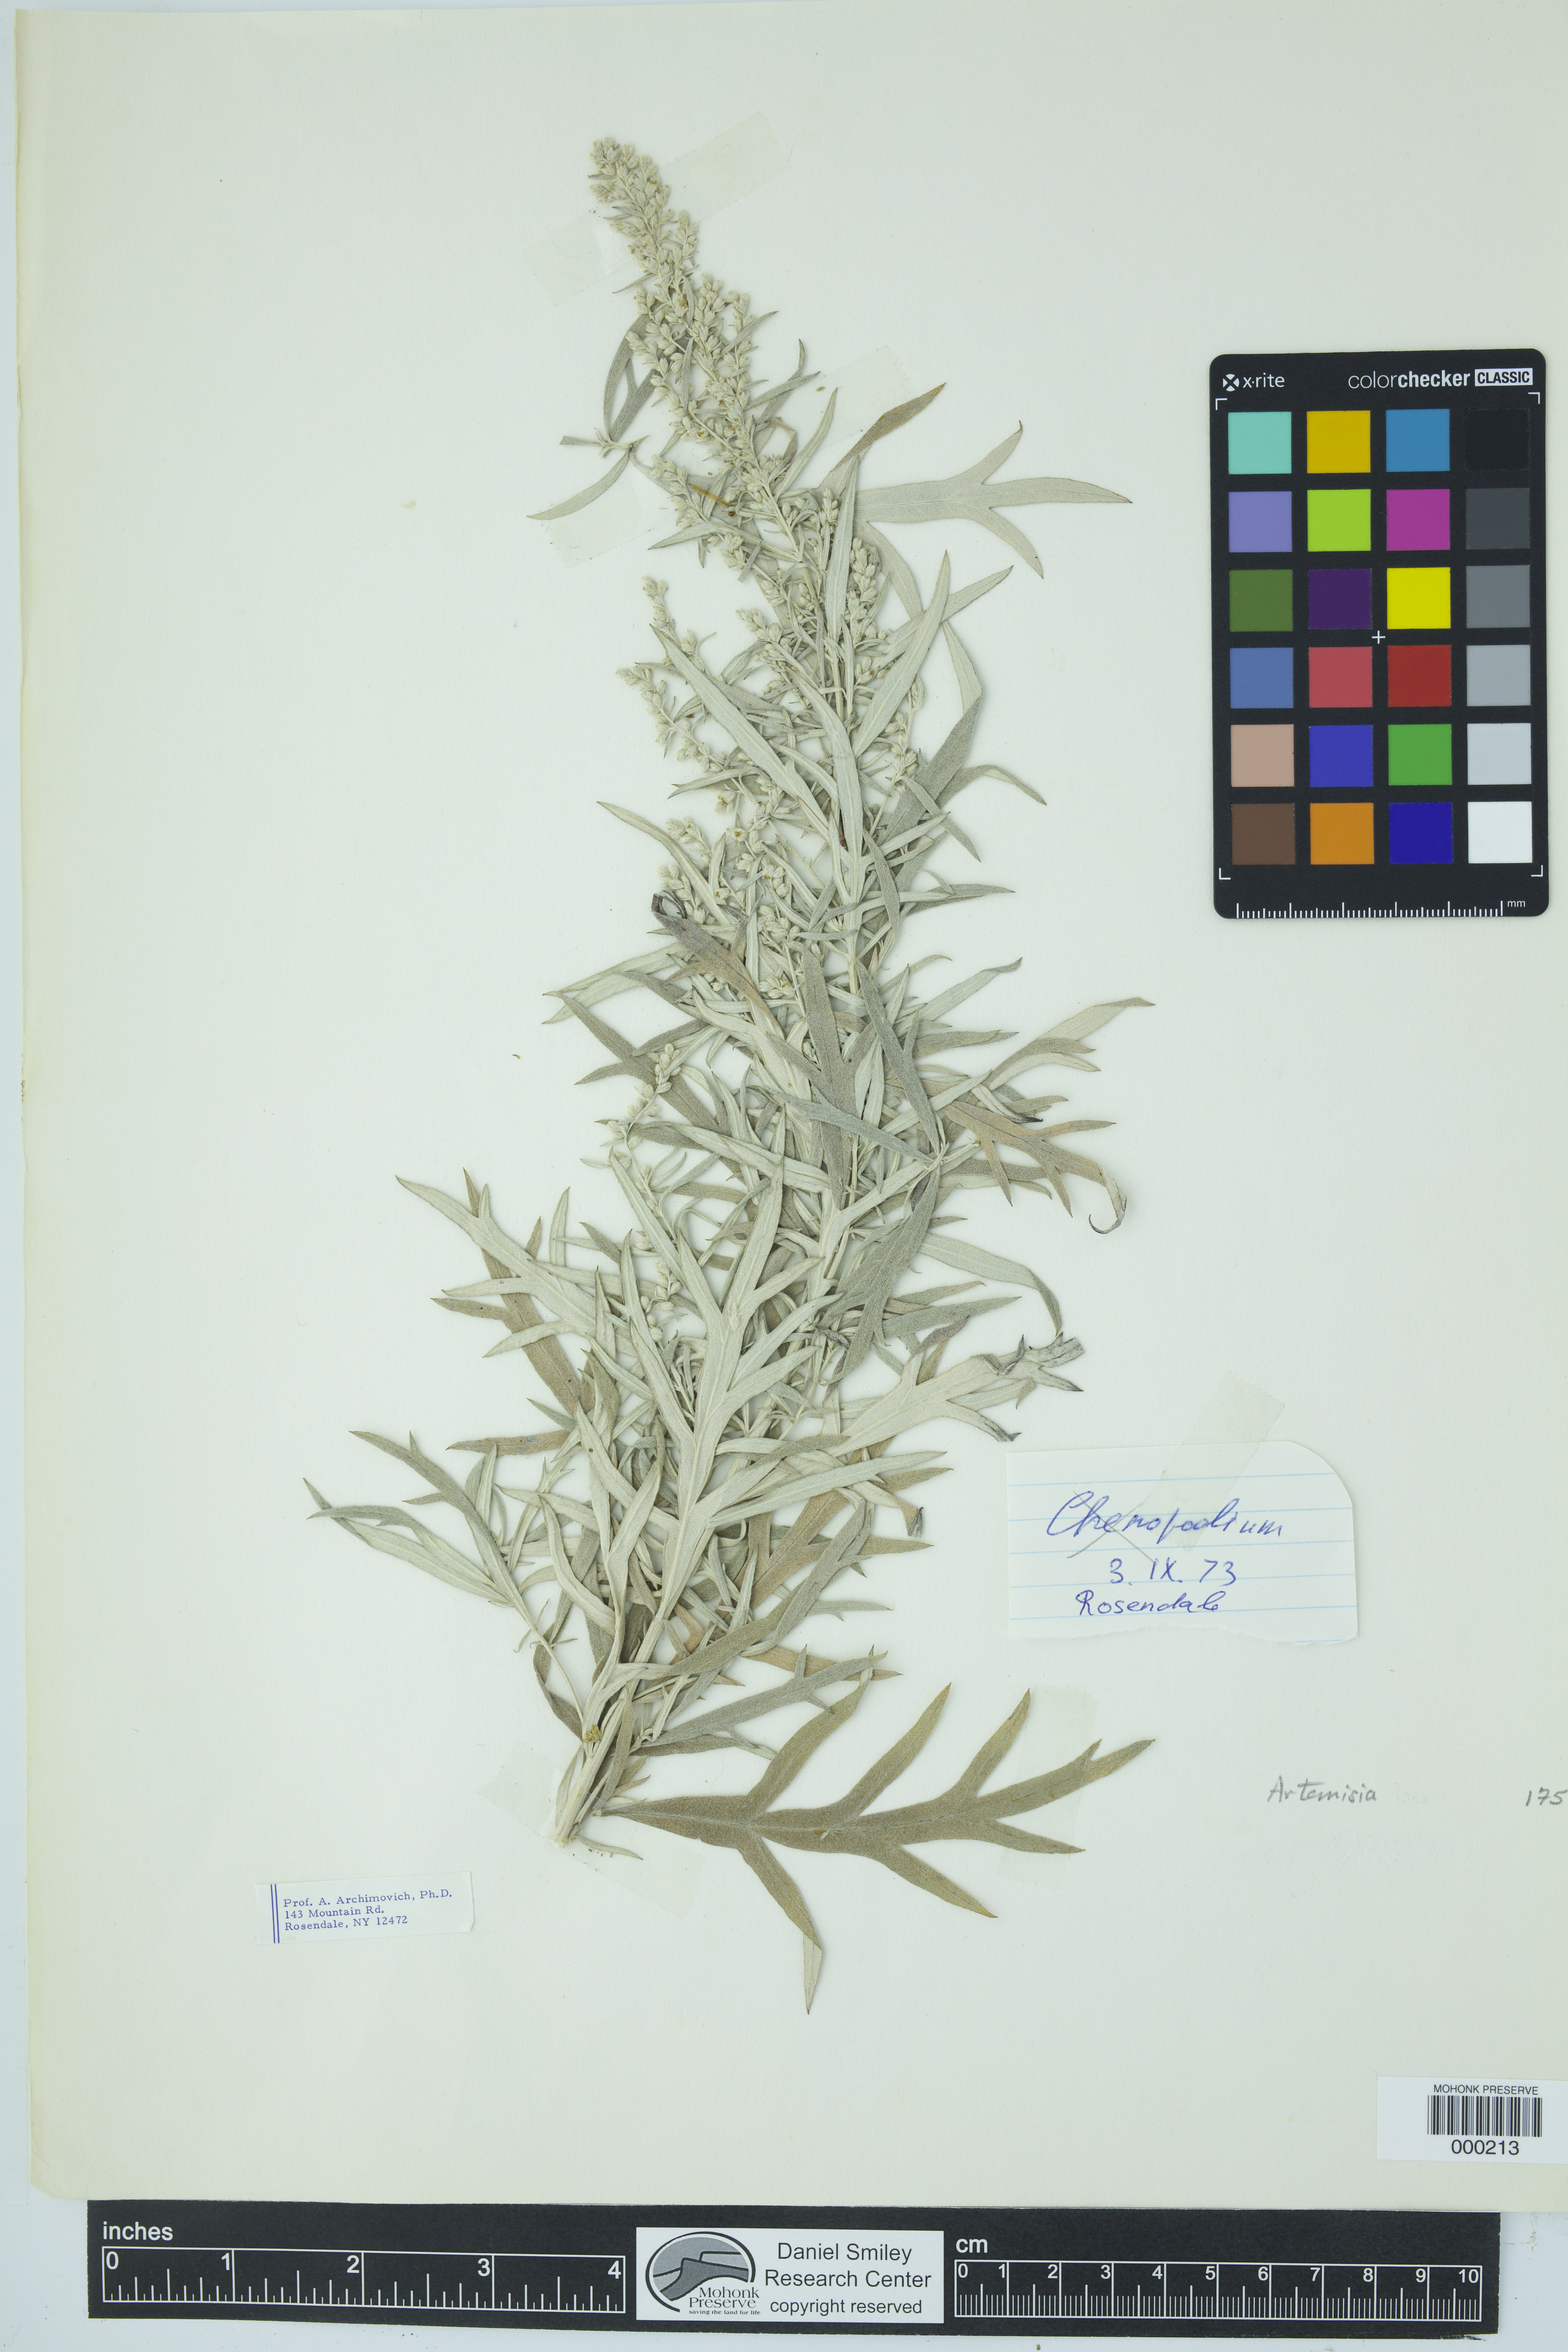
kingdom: Plantae
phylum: Tracheophyta
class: Magnoliopsida
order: Asterales
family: Asteraceae
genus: Artemisia
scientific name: Artemisia
